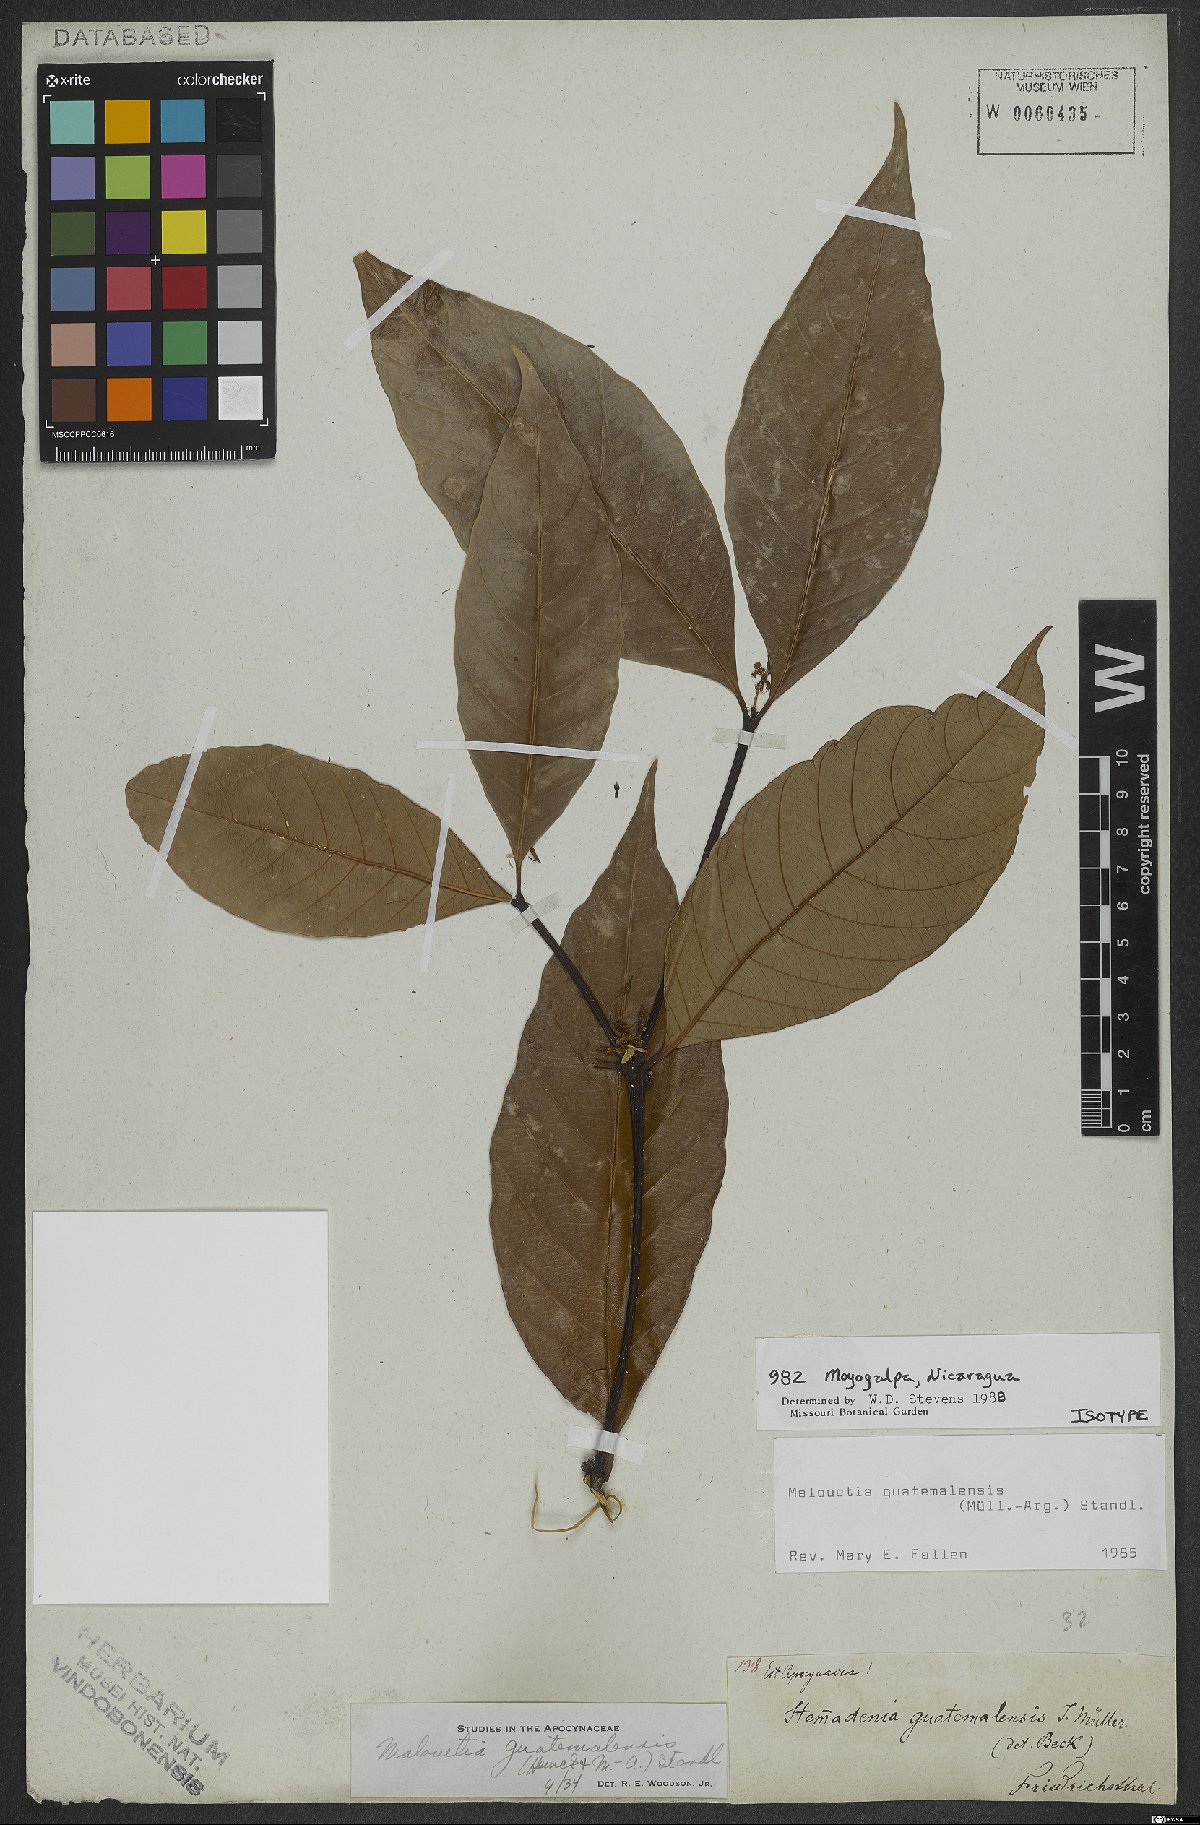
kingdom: Plantae
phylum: Tracheophyta
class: Magnoliopsida
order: Gentianales
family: Apocynaceae
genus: Malouetia
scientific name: Malouetia guatemalensis
